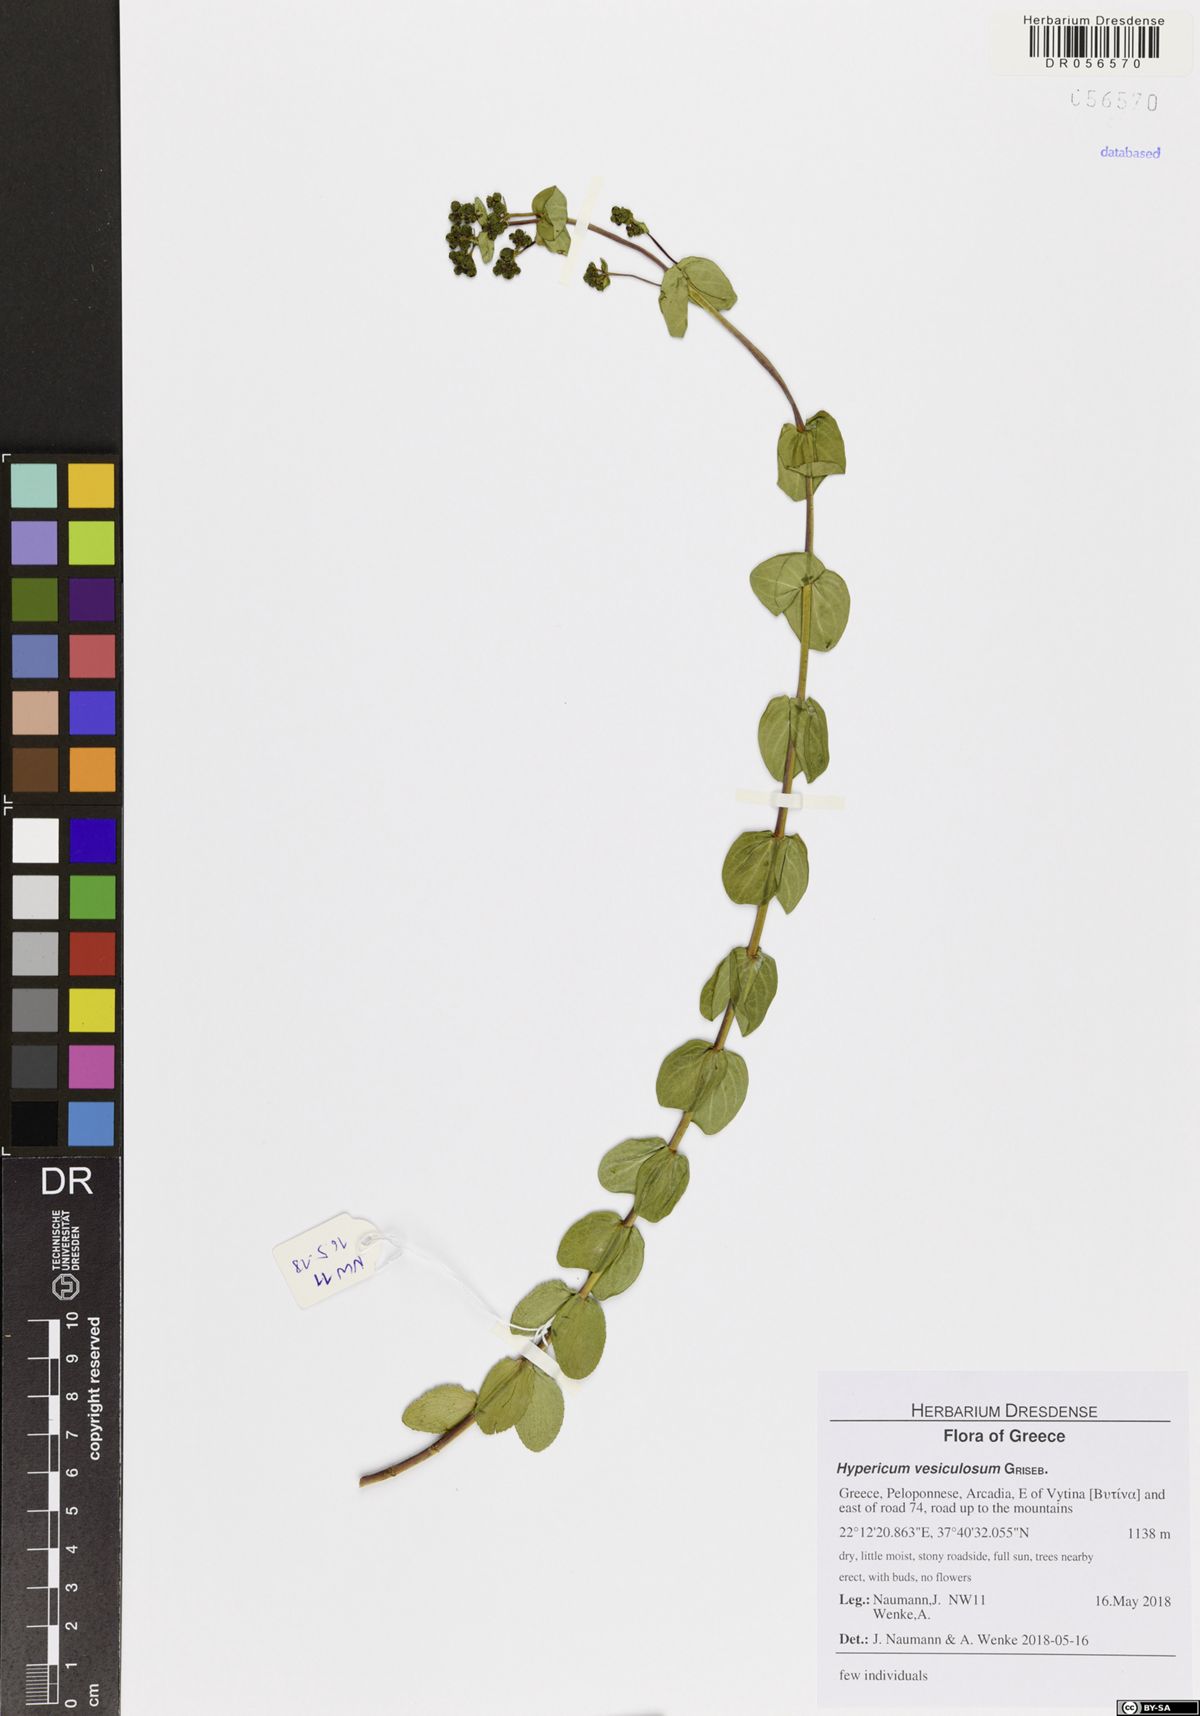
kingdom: Plantae
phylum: Tracheophyta
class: Magnoliopsida
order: Malpighiales
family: Hypericaceae
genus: Hypericum
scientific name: Hypericum vesiculosum
